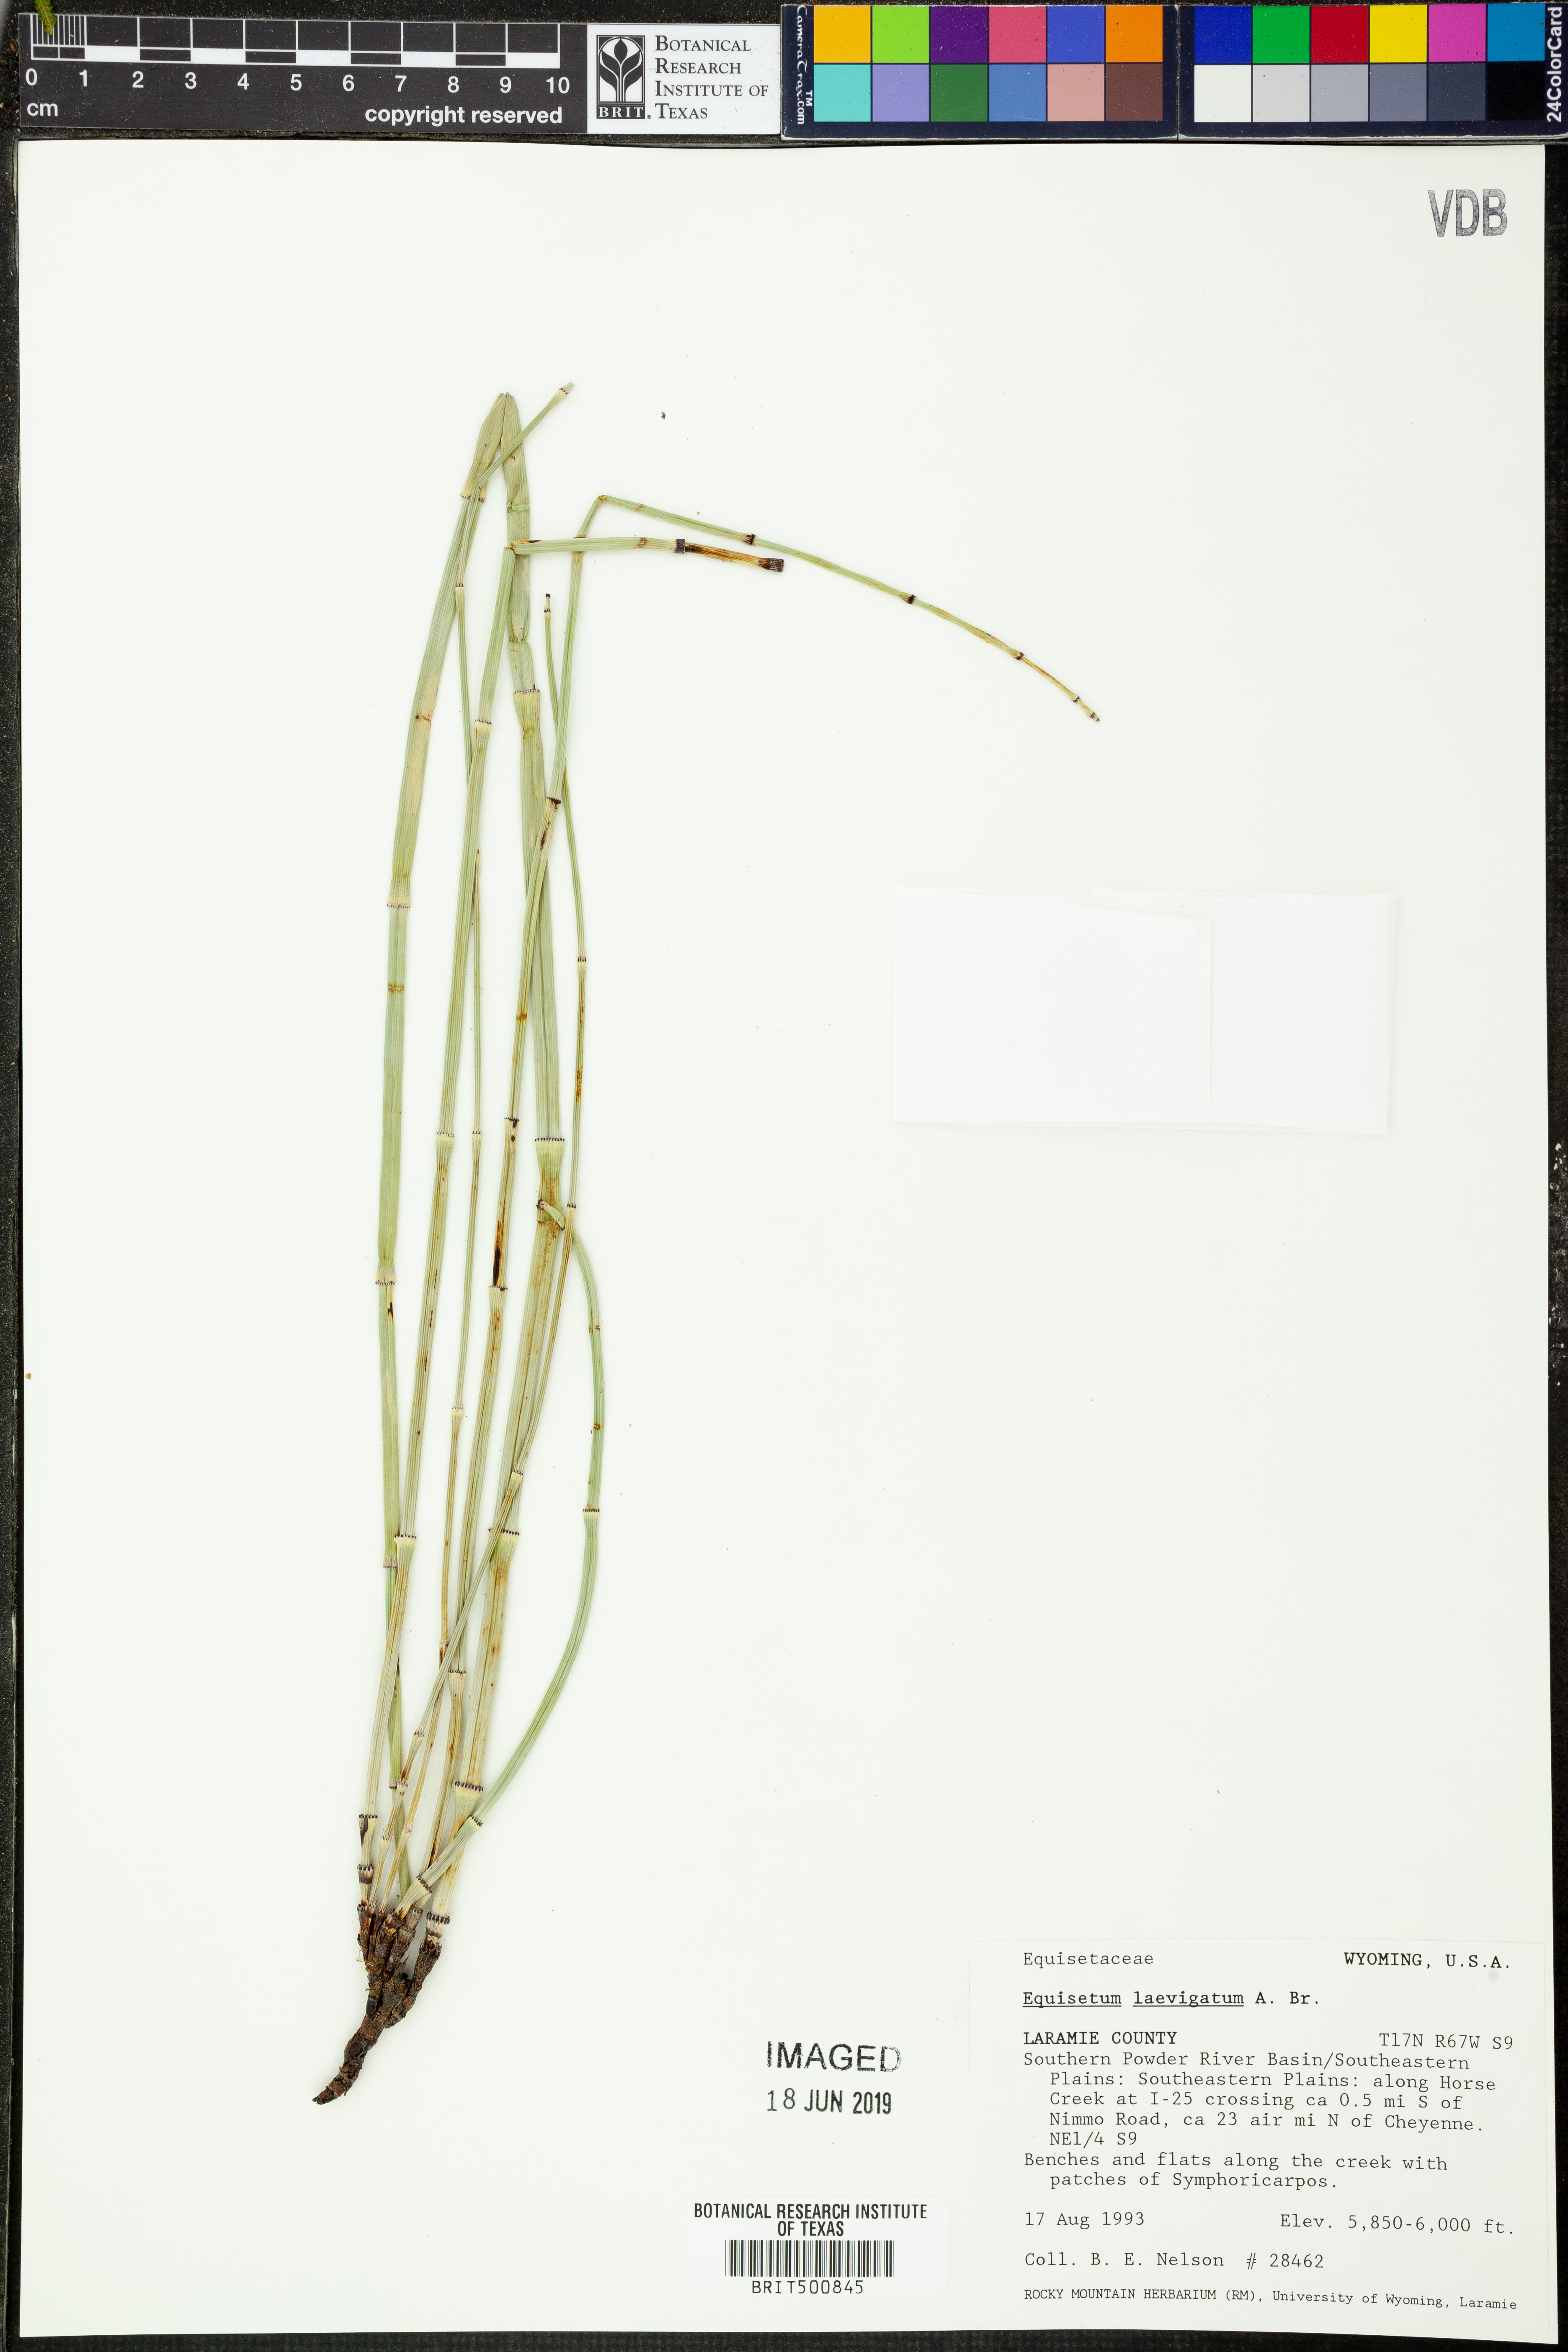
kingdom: Plantae
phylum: Tracheophyta
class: Polypodiopsida
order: Equisetales
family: Equisetaceae
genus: Equisetum
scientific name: Equisetum laevigatum
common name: Smooth scouring-rush
